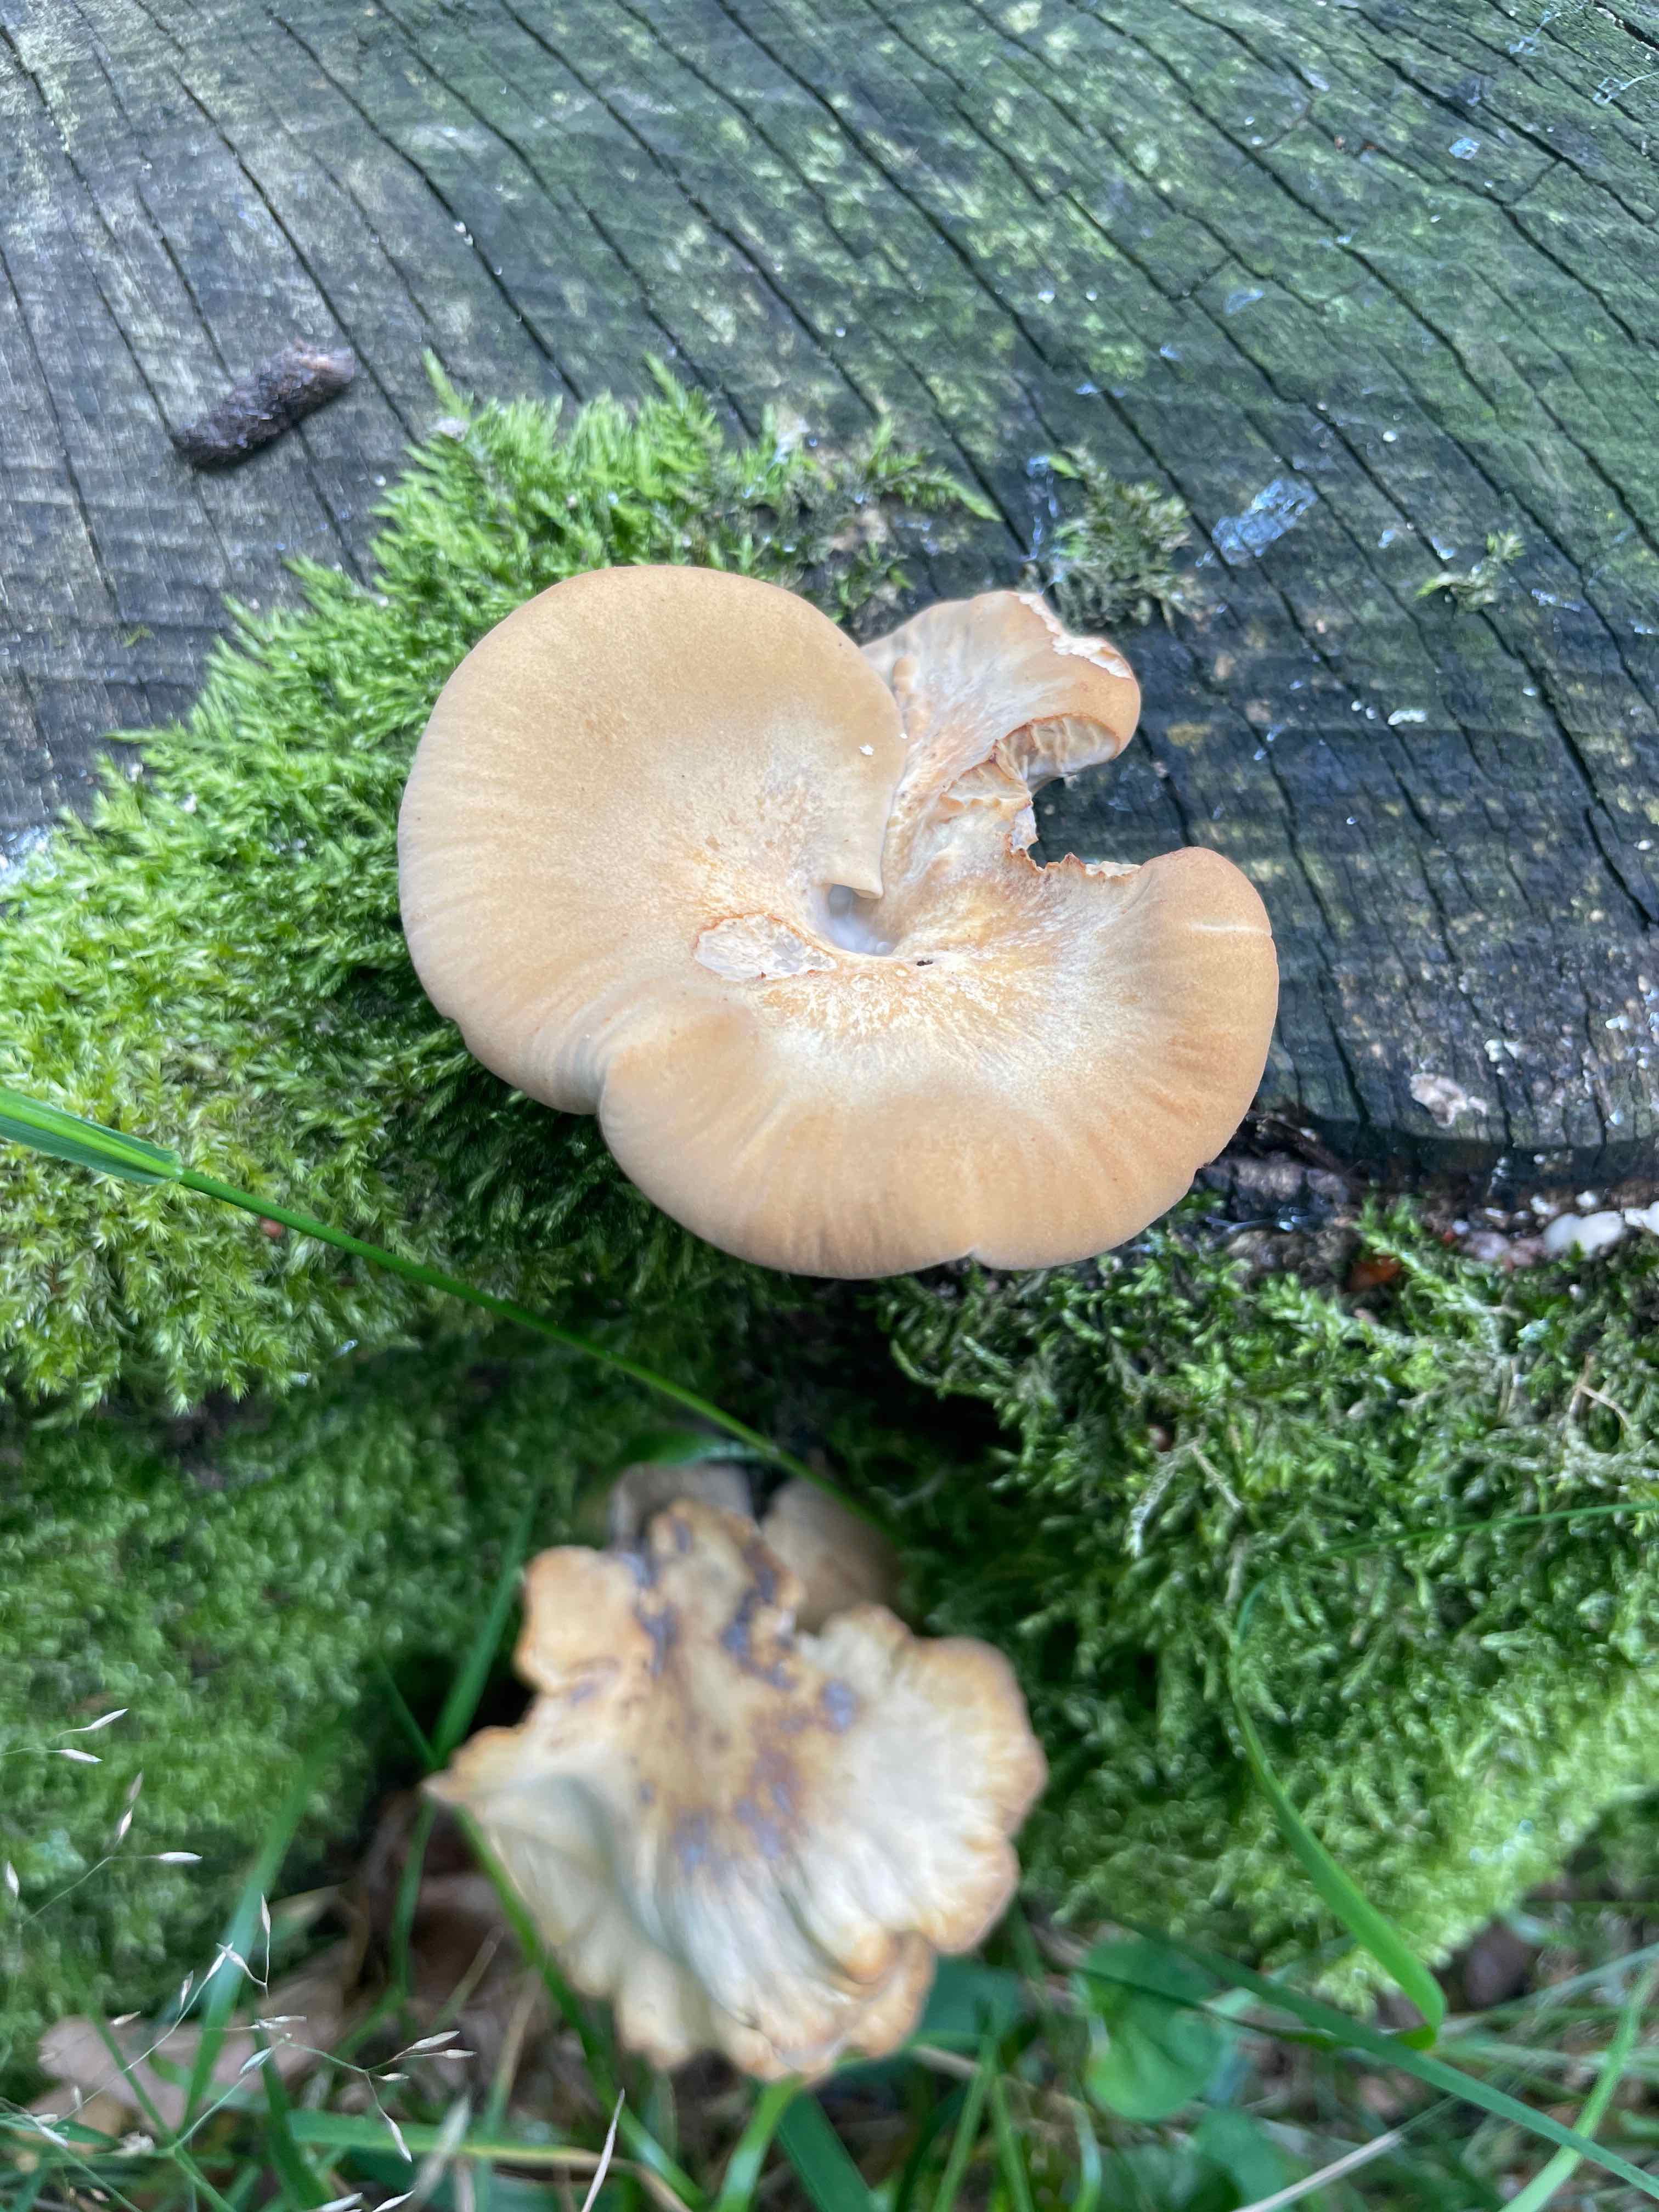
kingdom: Fungi
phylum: Basidiomycota
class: Agaricomycetes
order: Polyporales
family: Polyporaceae
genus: Cerioporus
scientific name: Cerioporus varius
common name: foranderlig stilkporesvamp
